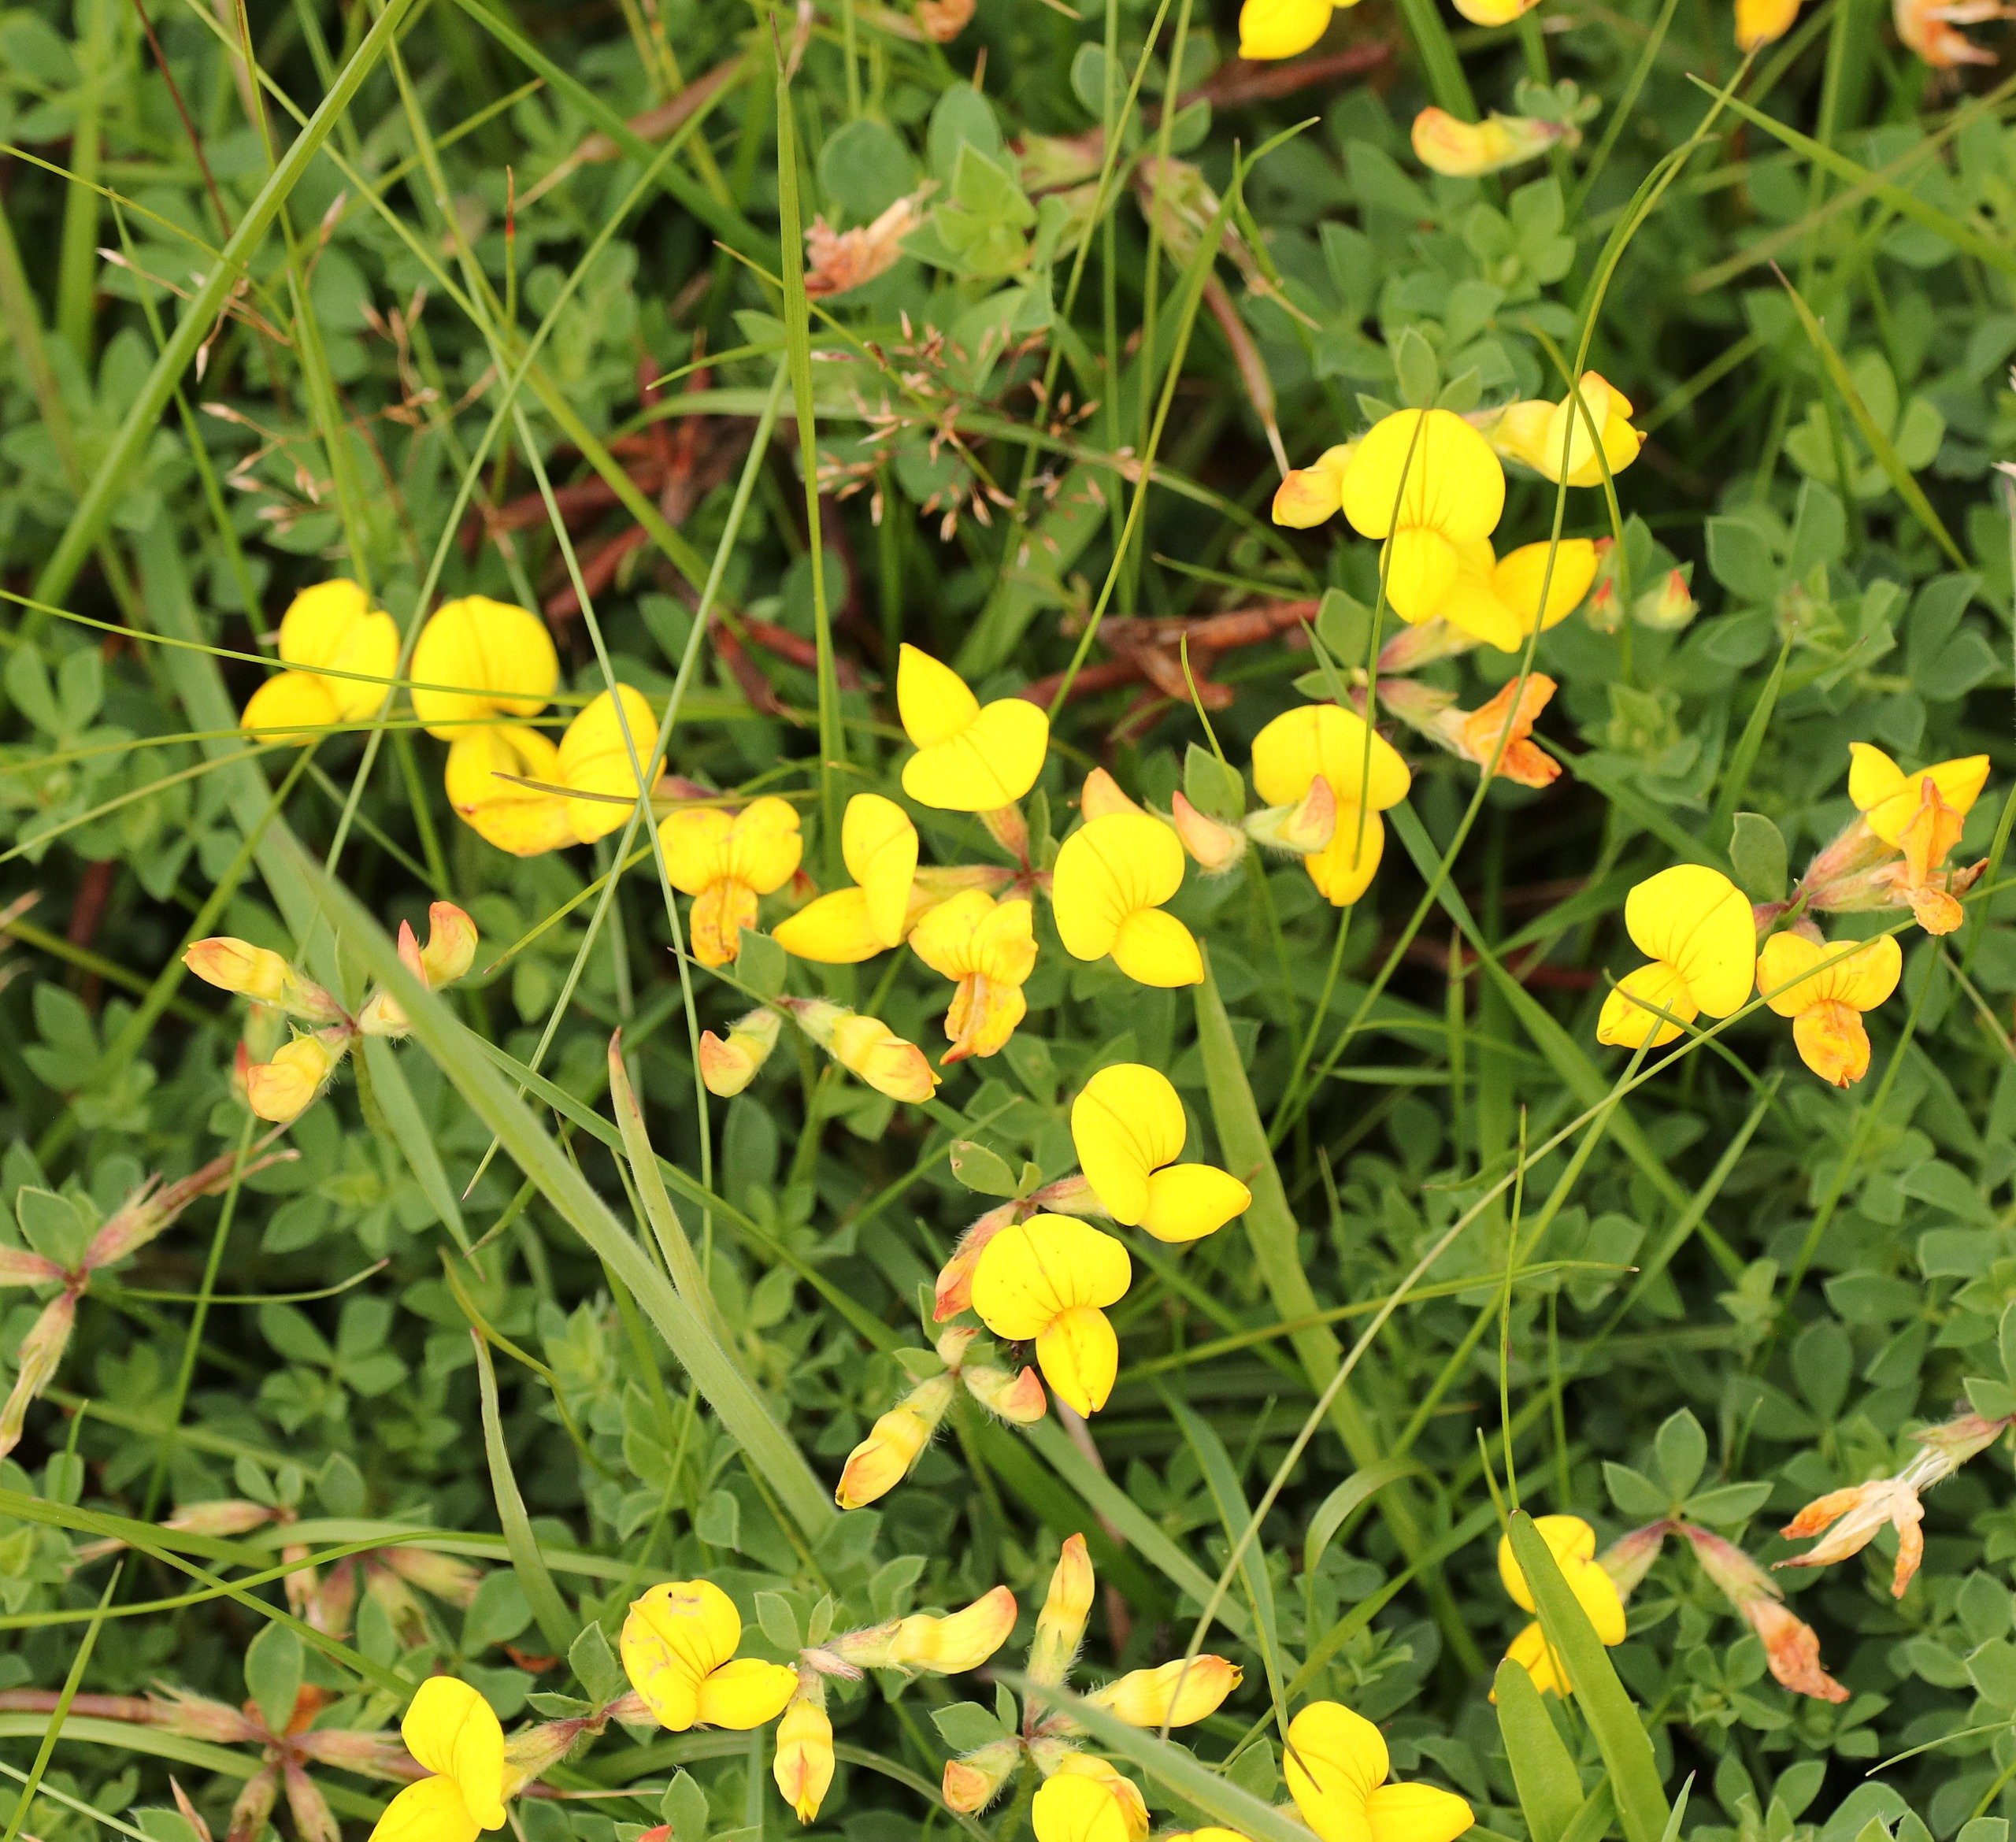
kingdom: Plantae
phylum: Tracheophyta
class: Magnoliopsida
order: Fabales
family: Fabaceae
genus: Lotus
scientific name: Lotus corniculatus
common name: Almindelig kællingetand
